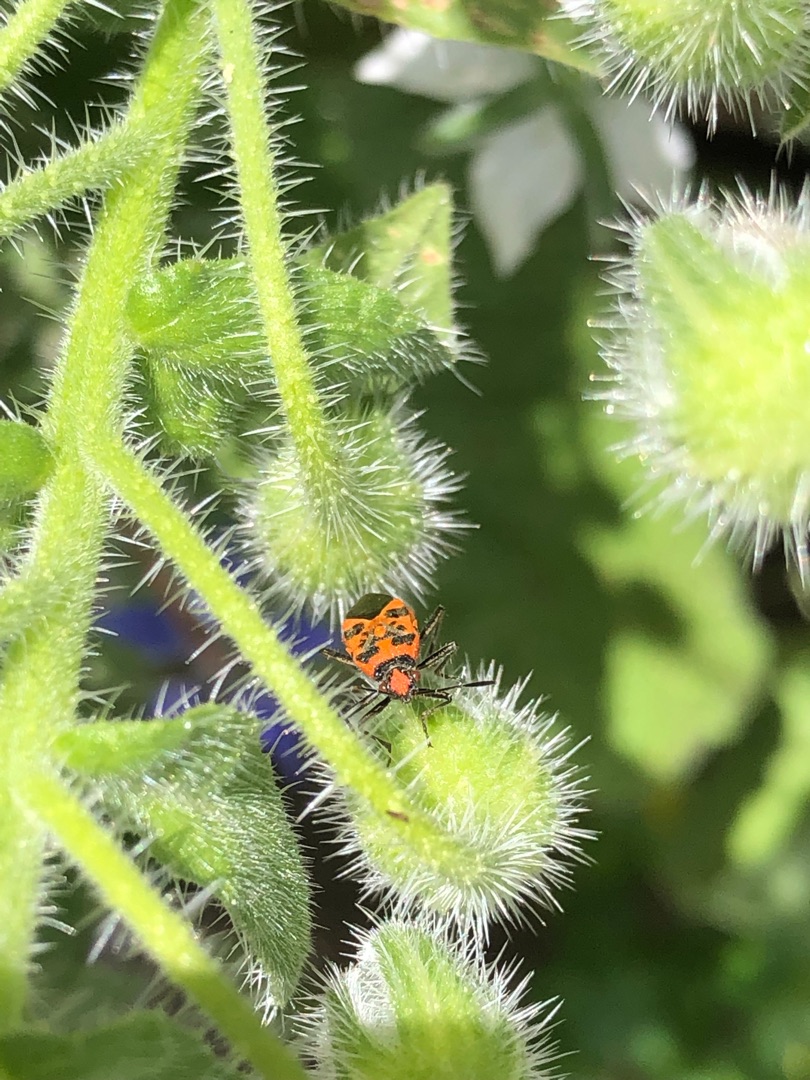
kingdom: Animalia
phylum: Arthropoda
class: Insecta
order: Hemiptera
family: Rhopalidae
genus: Corizus
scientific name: Corizus hyoscyami
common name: Rød kanttæge
